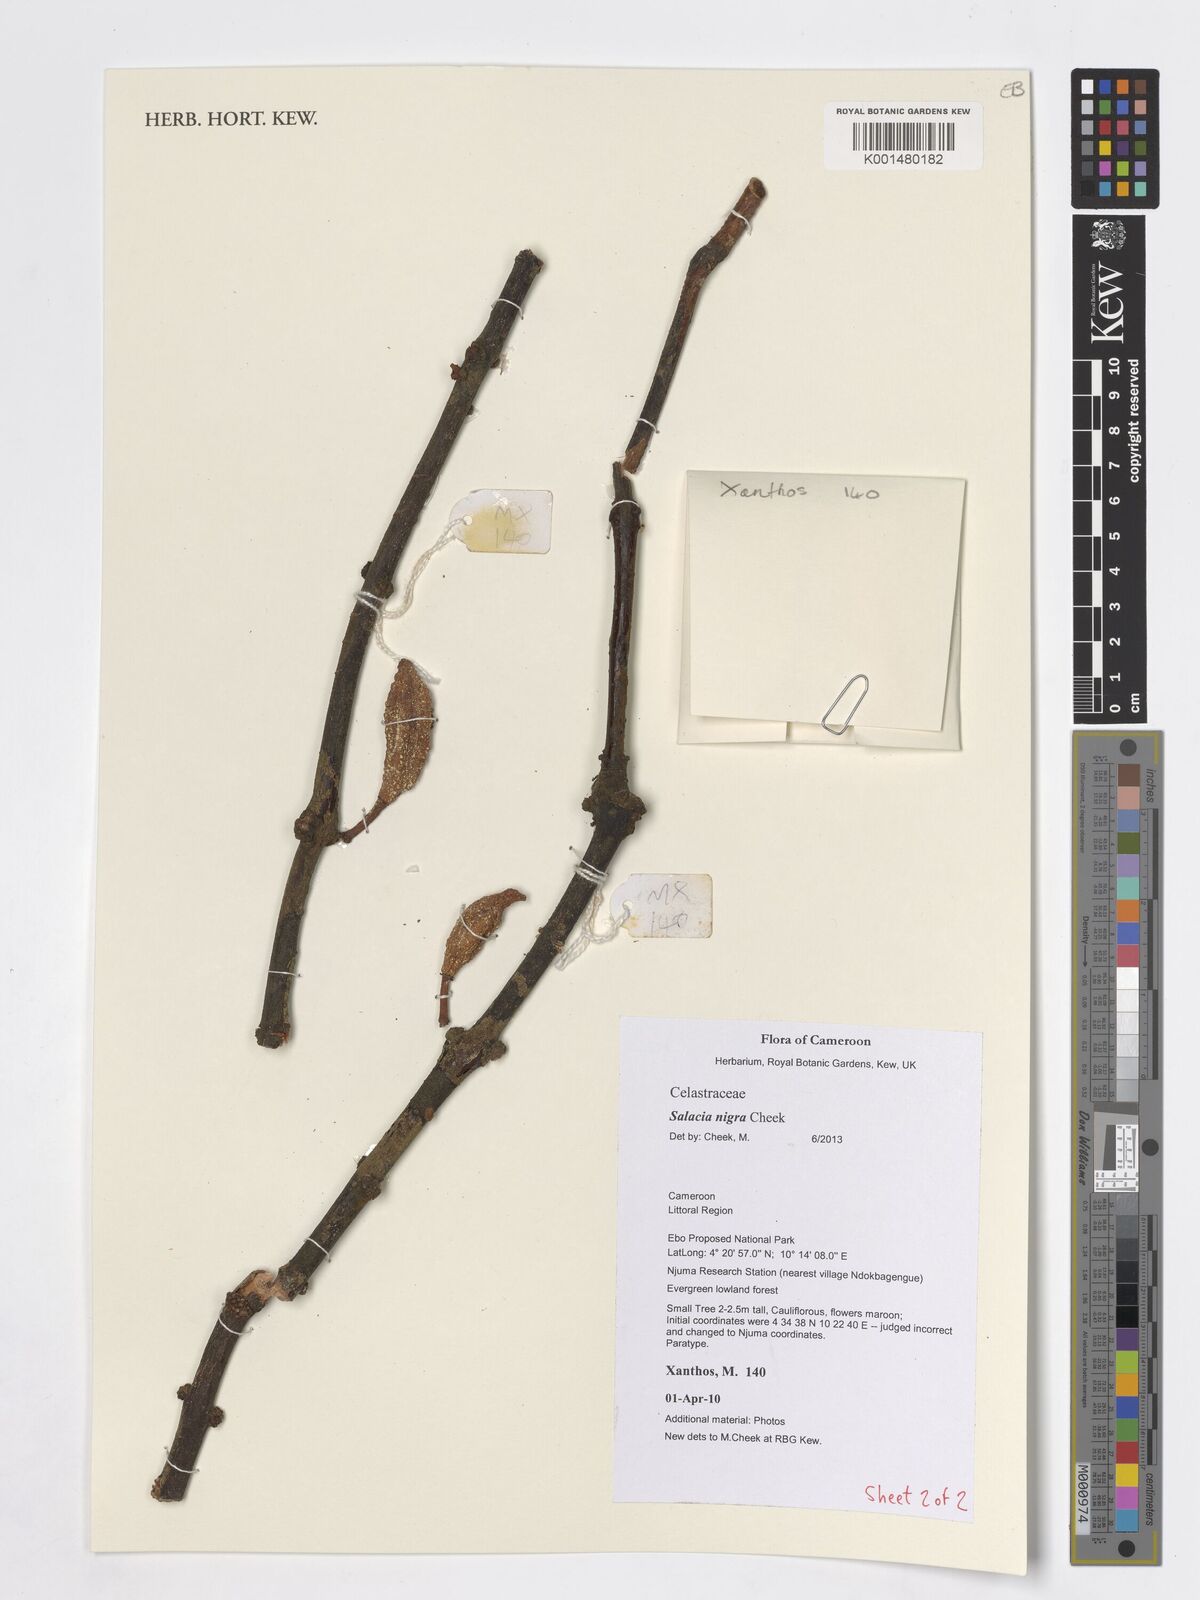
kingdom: Plantae
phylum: Tracheophyta
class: Magnoliopsida
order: Celastrales
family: Celastraceae
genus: Salacia
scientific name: Salacia nigra
